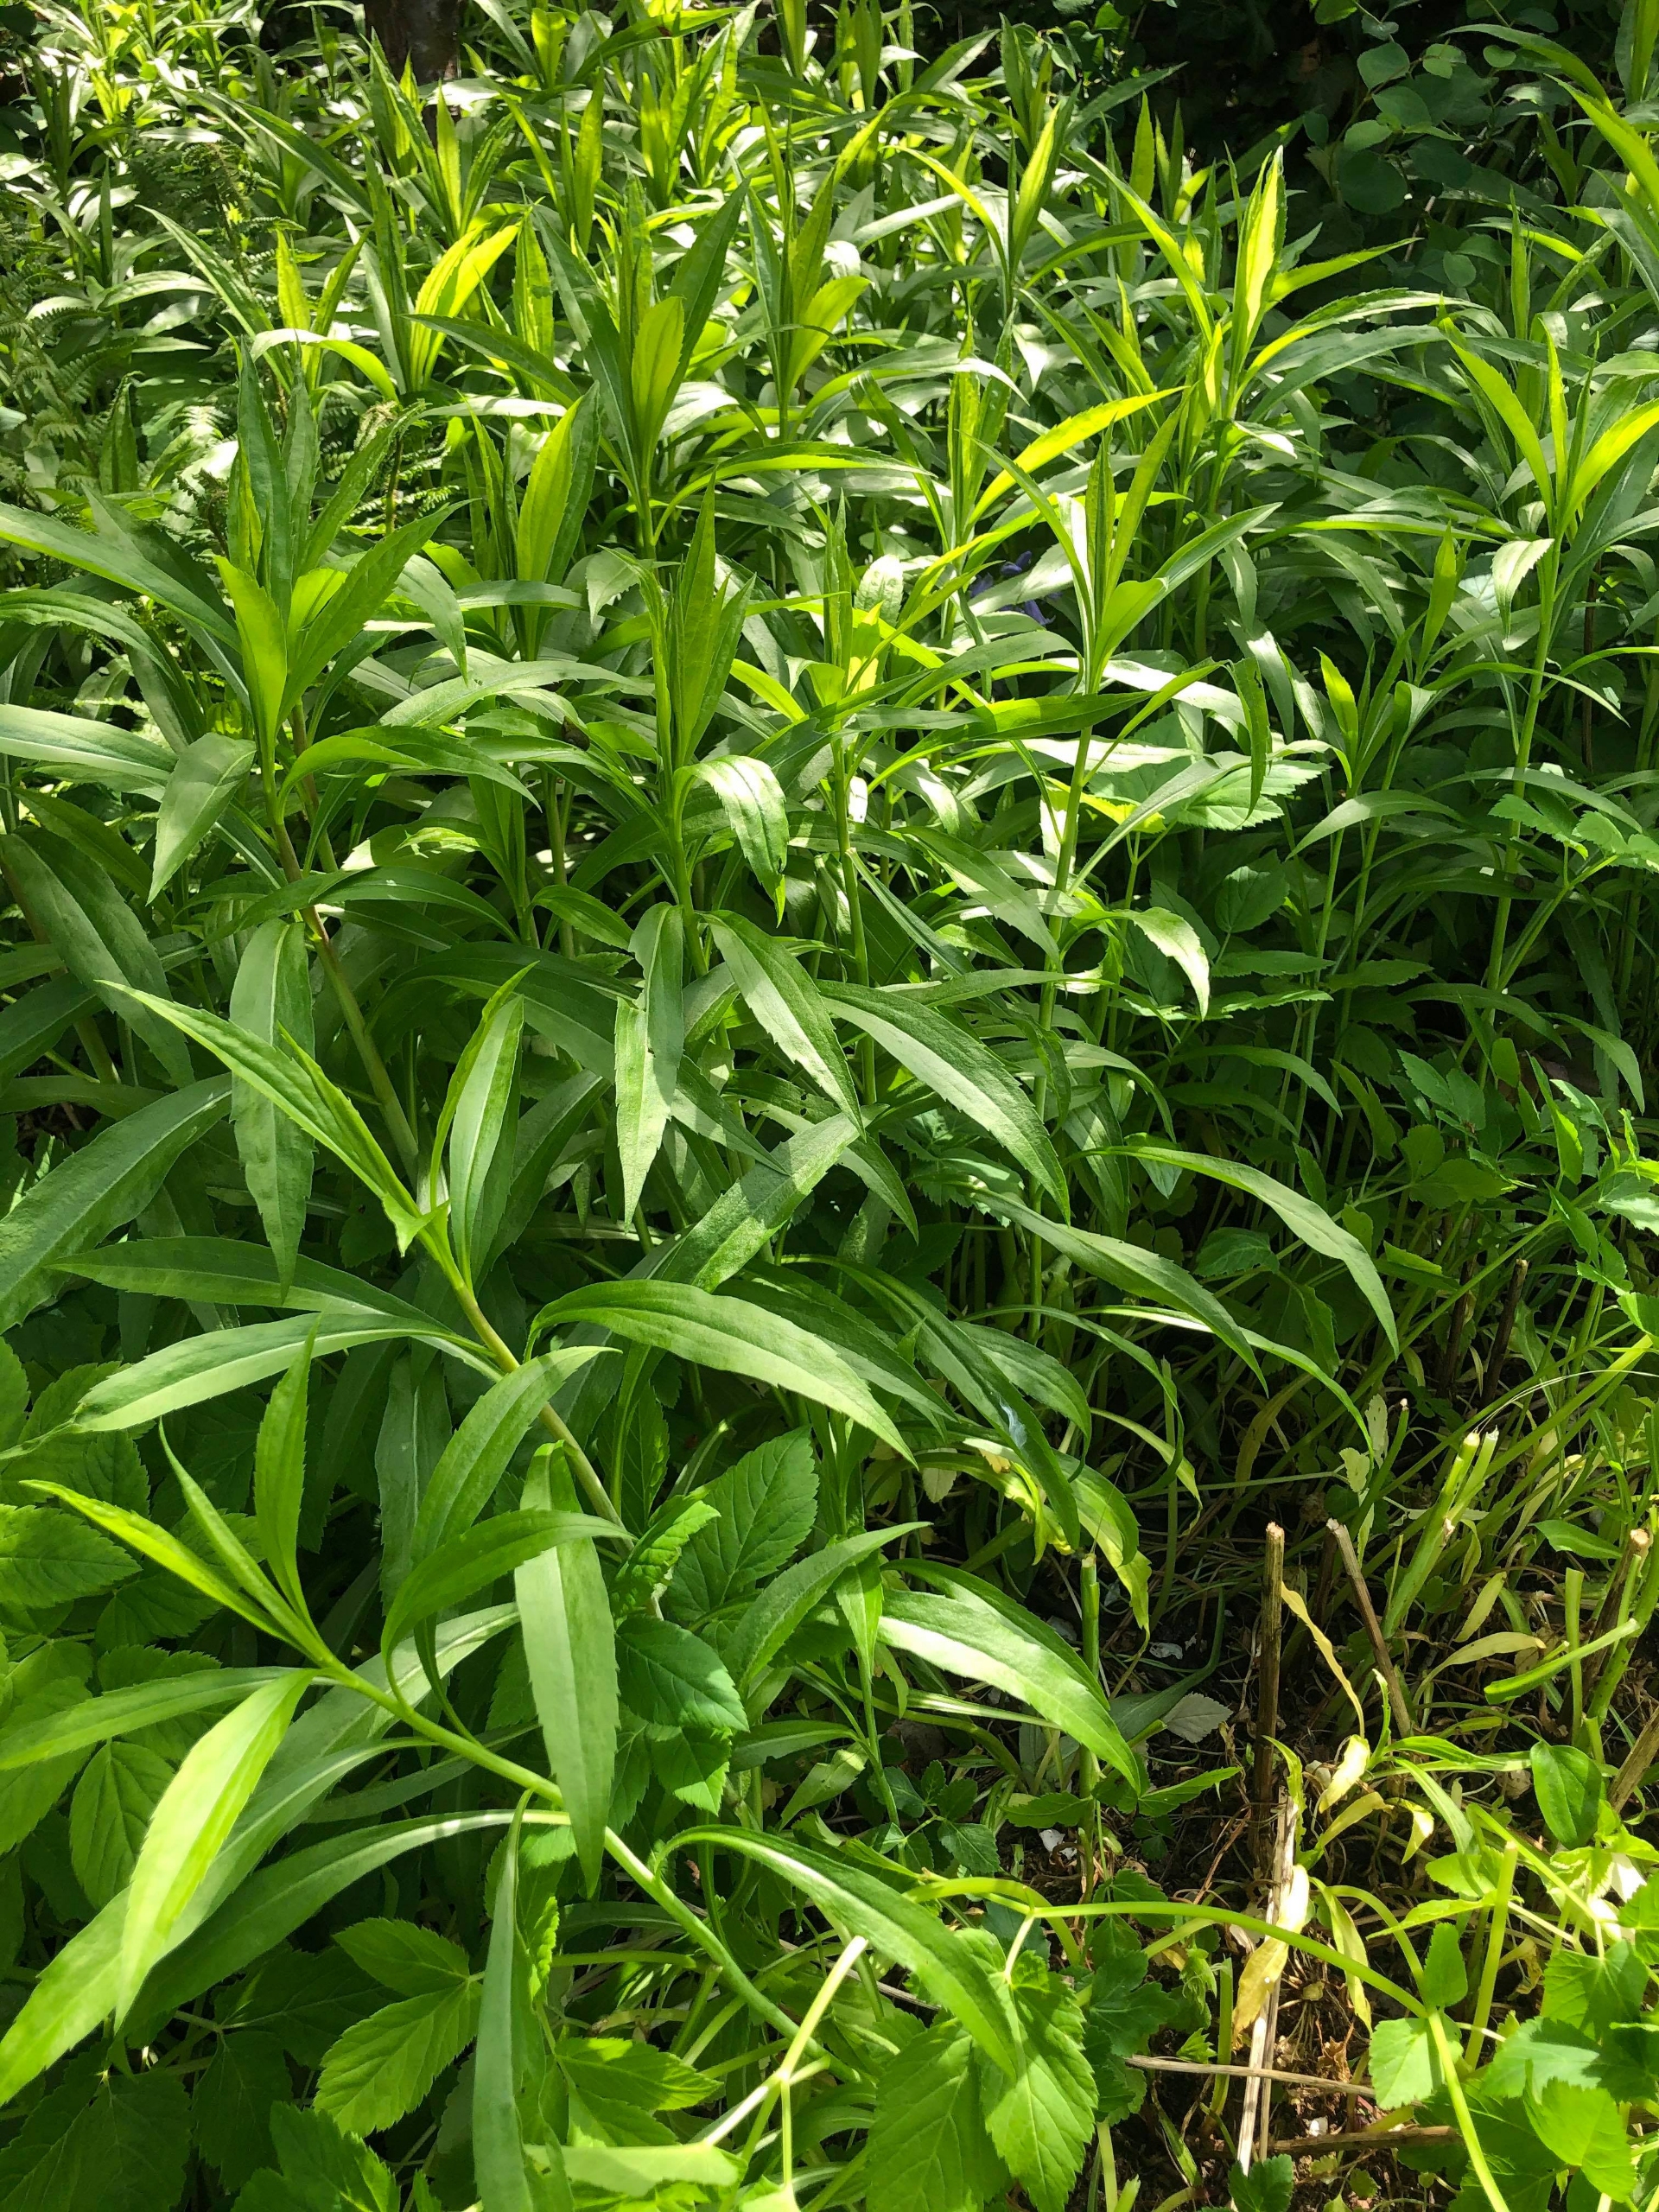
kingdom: Plantae
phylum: Tracheophyta
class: Magnoliopsida
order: Asterales
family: Asteraceae
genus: Solidago
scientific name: Solidago gigantea
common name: Sildig gyldenris
